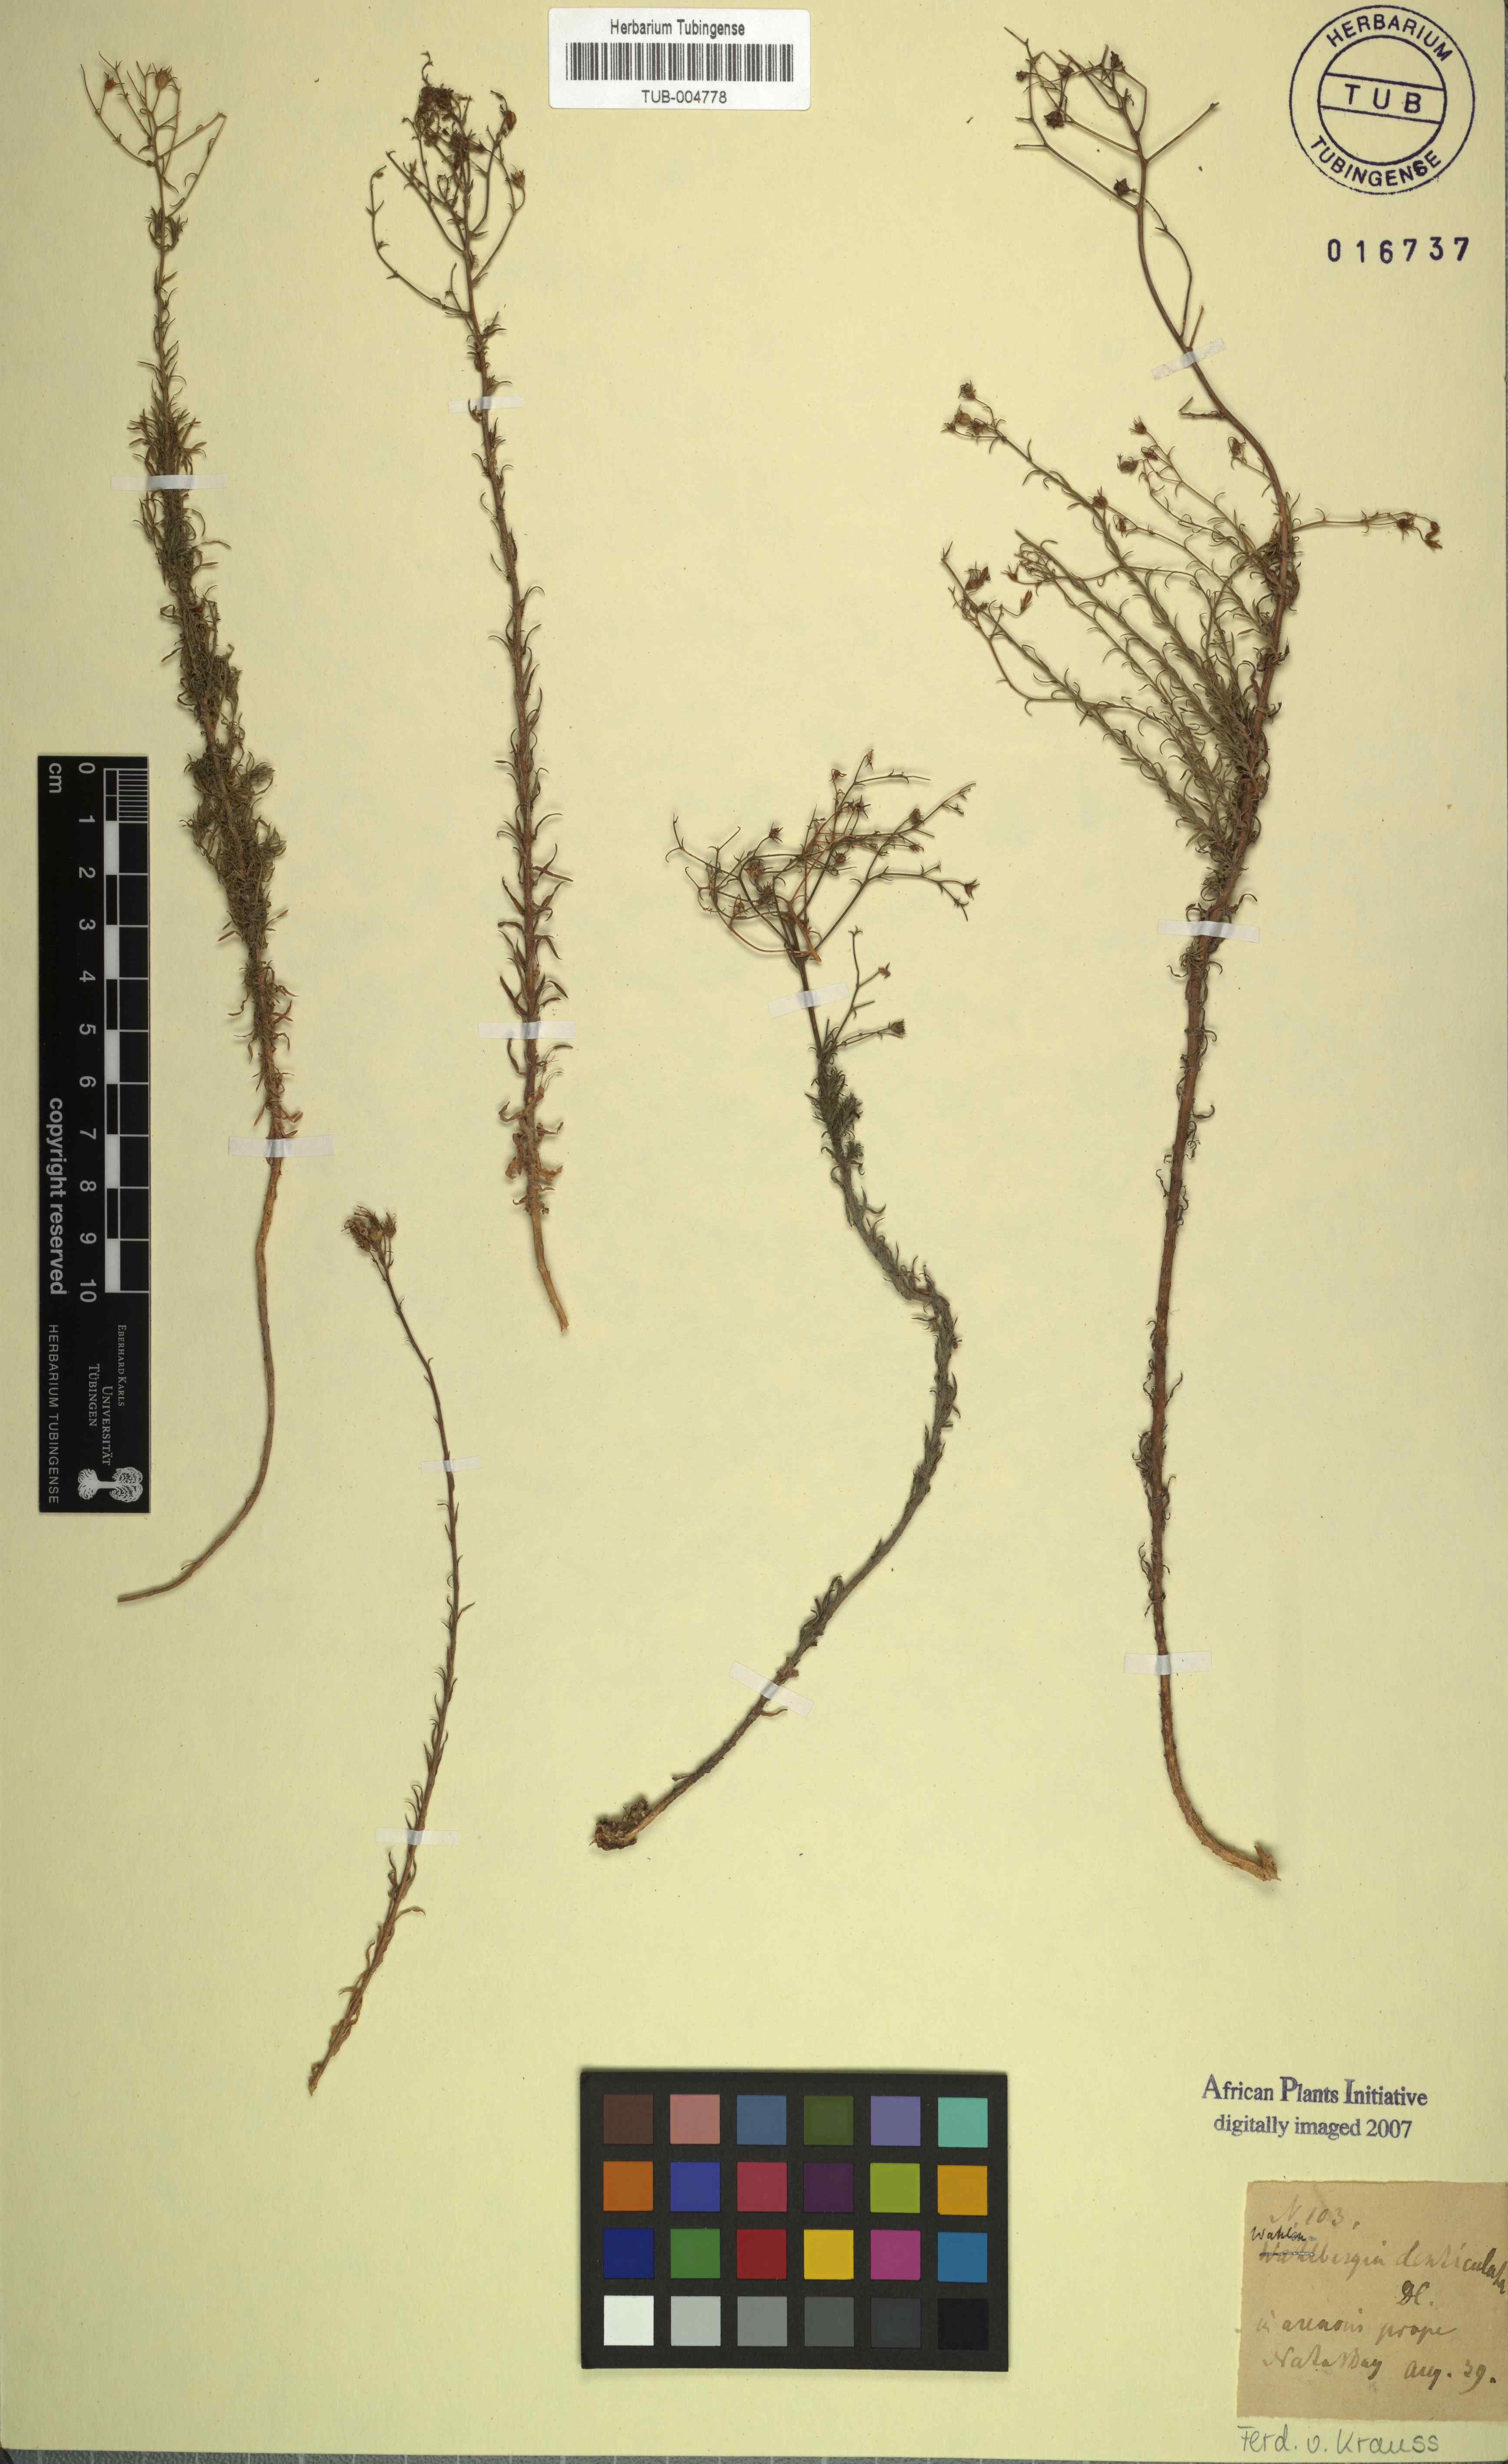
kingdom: Plantae
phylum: Tracheophyta
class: Magnoliopsida
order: Asterales
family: Campanulaceae
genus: Wahlenbergia
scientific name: Wahlenbergia thulinii
